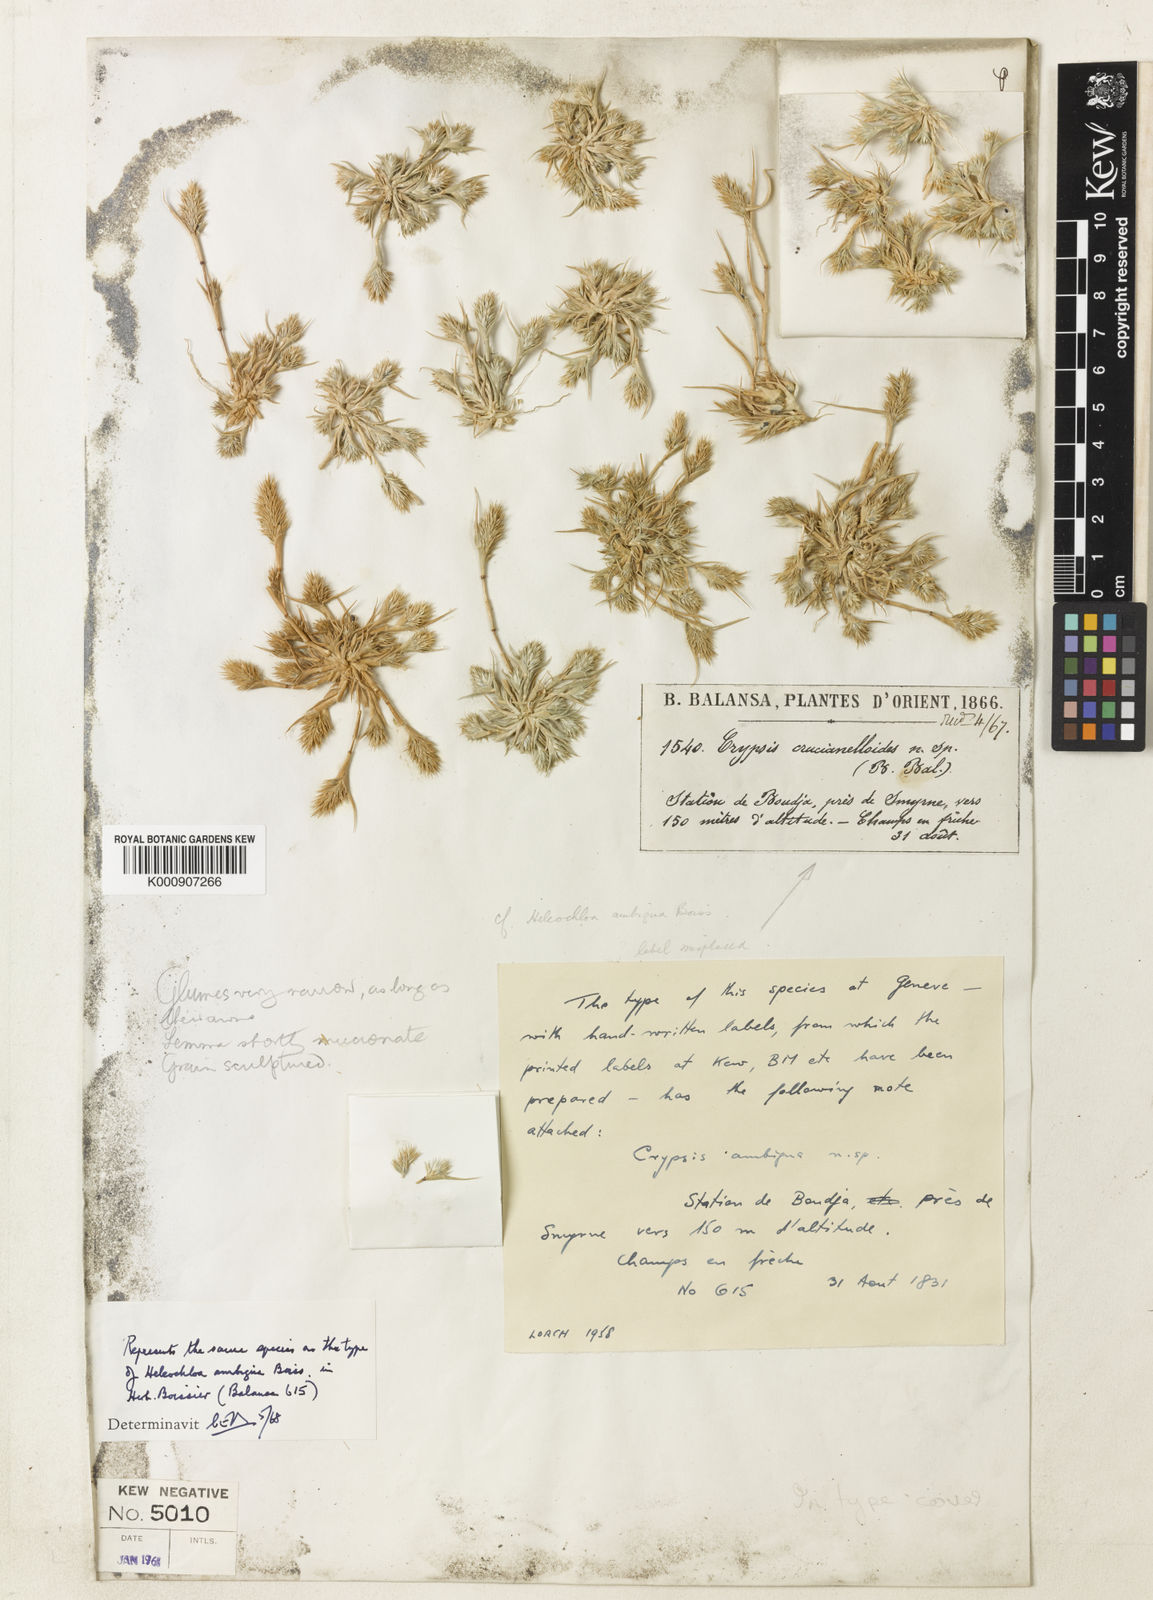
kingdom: Plantae
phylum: Tracheophyta
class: Liliopsida
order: Poales
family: Poaceae
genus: Sporobolus
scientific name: Sporobolus borszczowii
